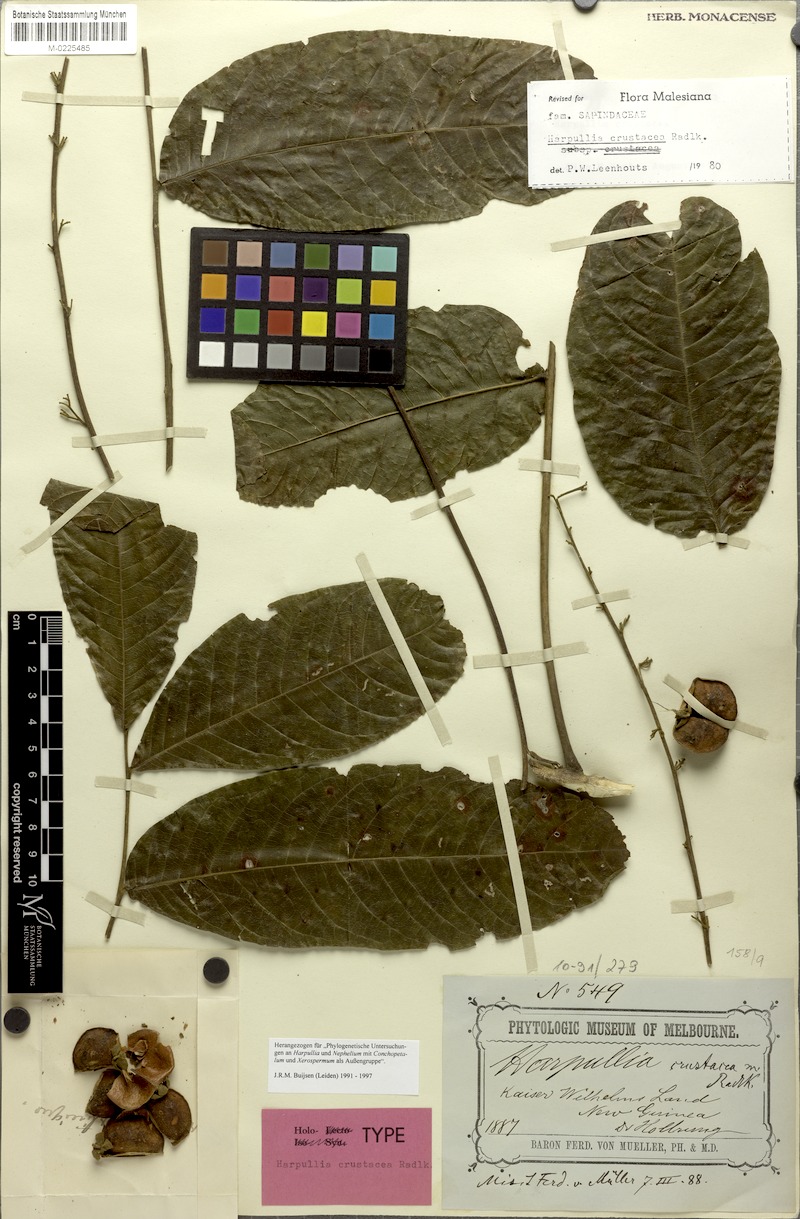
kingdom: Plantae
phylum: Tracheophyta
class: Magnoliopsida
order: Sapindales
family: Sapindaceae
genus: Harpullia
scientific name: Harpullia crustacea
